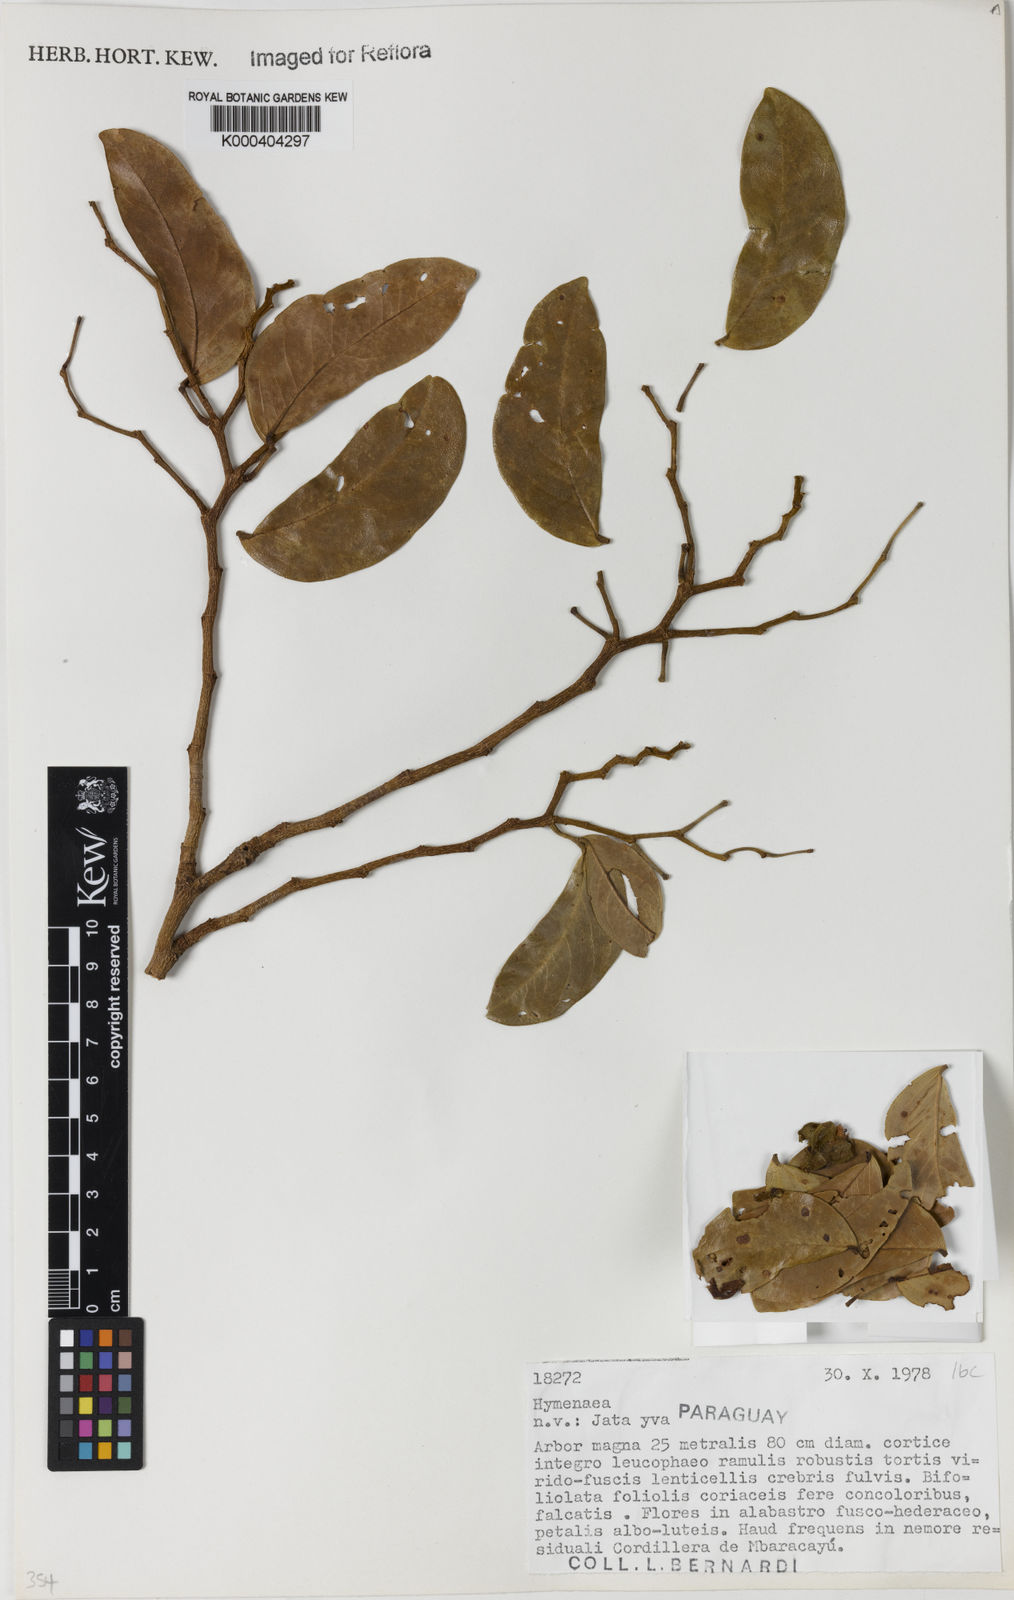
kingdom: Plantae
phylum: Tracheophyta
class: Magnoliopsida
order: Fabales
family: Fabaceae
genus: Hymenaea
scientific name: Hymenaea
